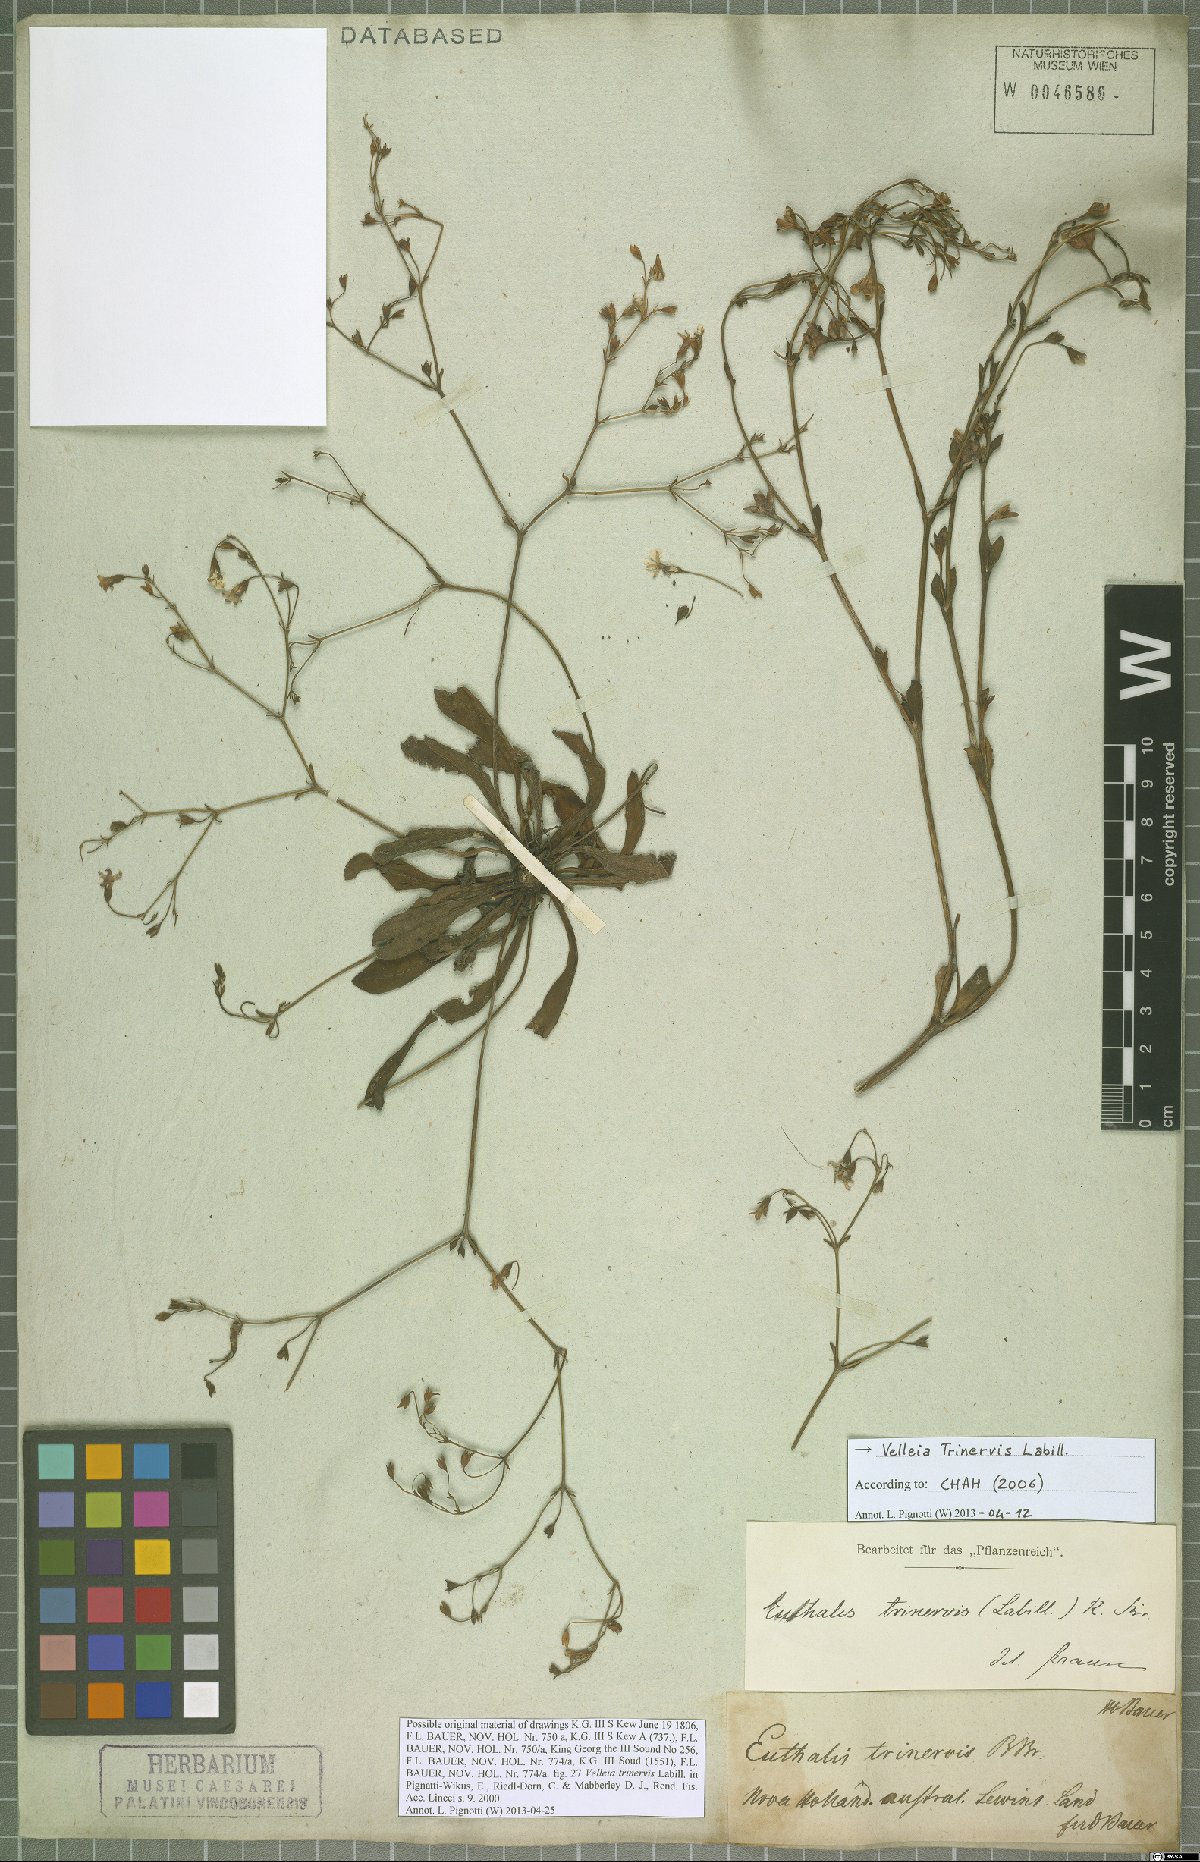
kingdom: Plantae
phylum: Tracheophyta
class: Magnoliopsida
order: Asterales
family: Goodeniaceae
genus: Goodenia
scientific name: Goodenia trinervis
